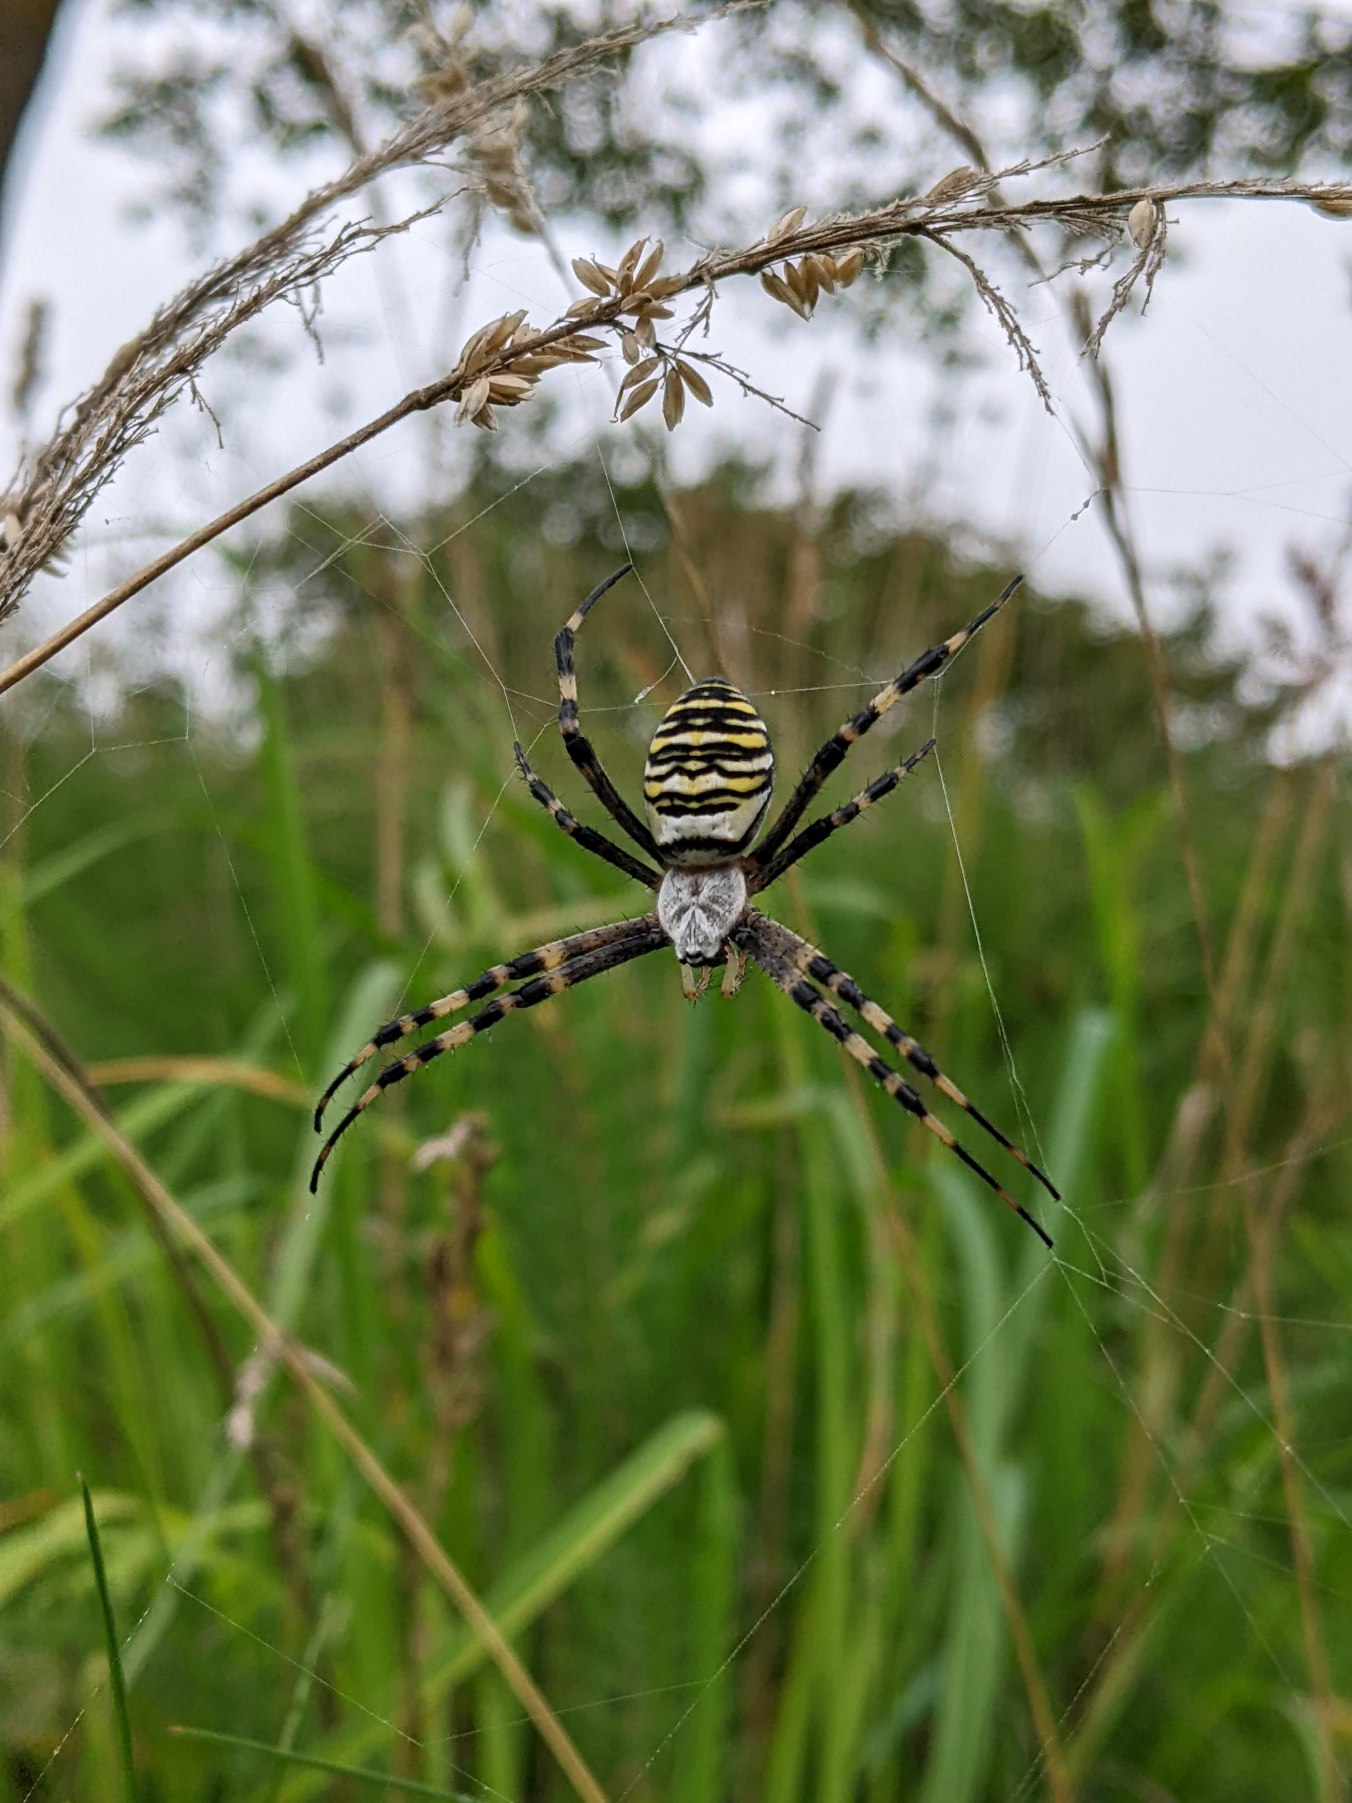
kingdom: Animalia
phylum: Arthropoda
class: Arachnida
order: Araneae
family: Araneidae
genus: Argiope
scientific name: Argiope bruennichi
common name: Hvepseedderkop
